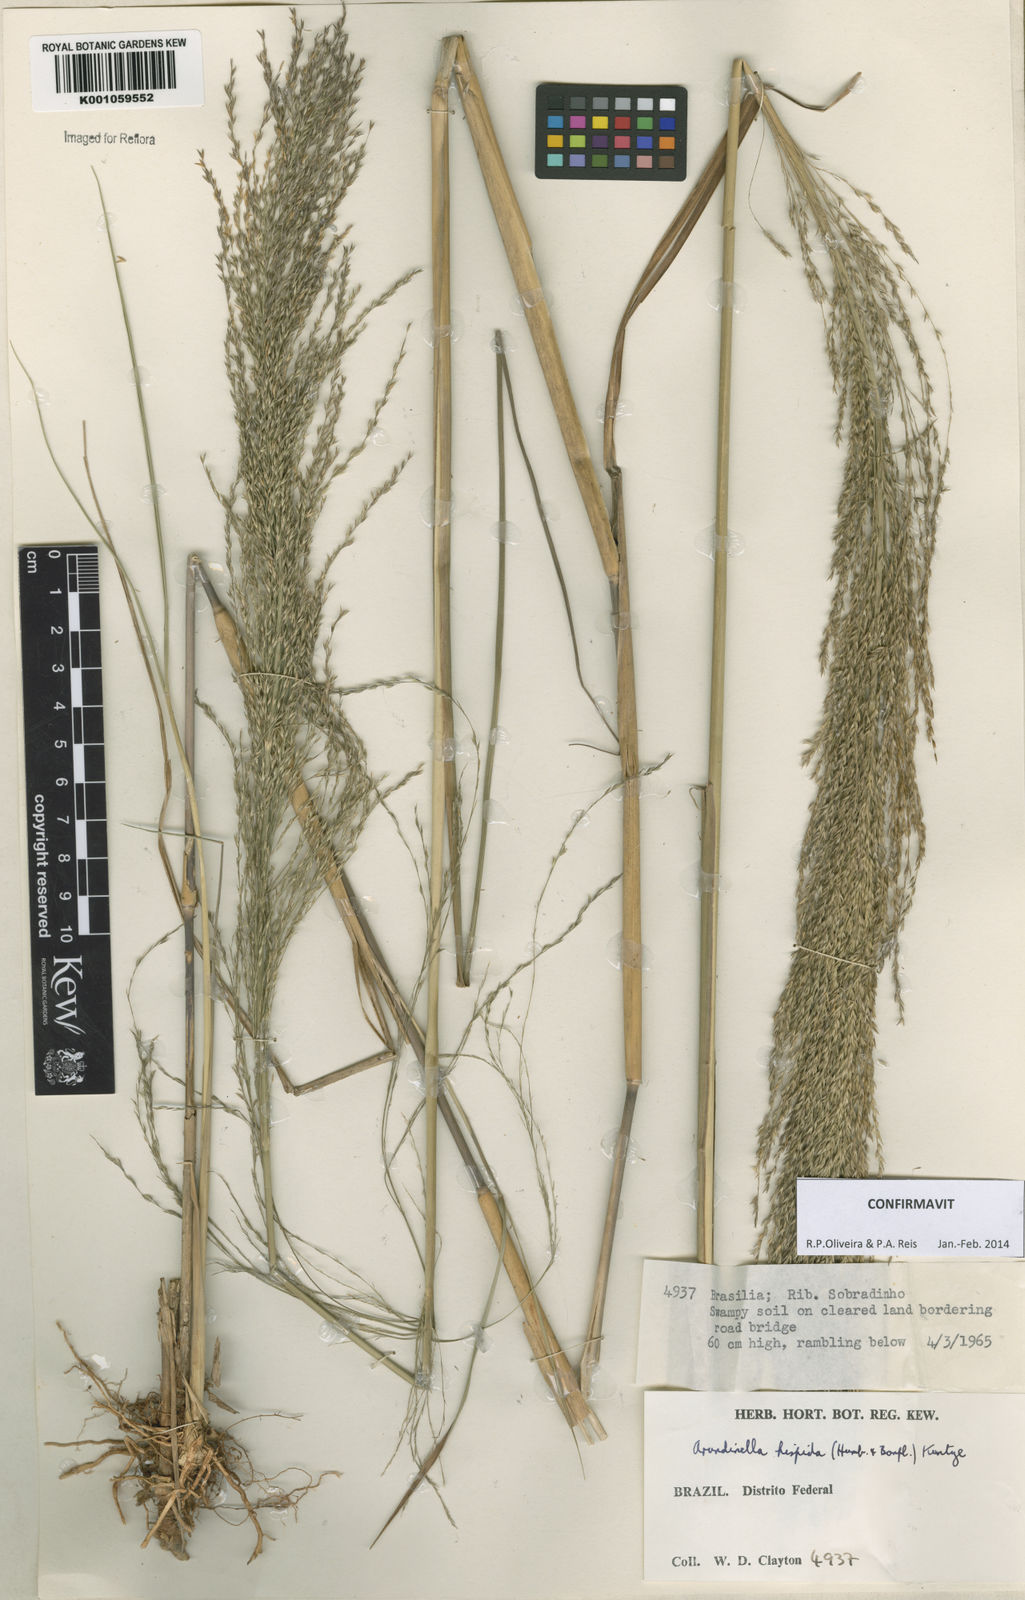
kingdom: Plantae
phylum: Tracheophyta
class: Liliopsida
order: Poales
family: Poaceae
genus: Arundinella
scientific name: Arundinella hispida
